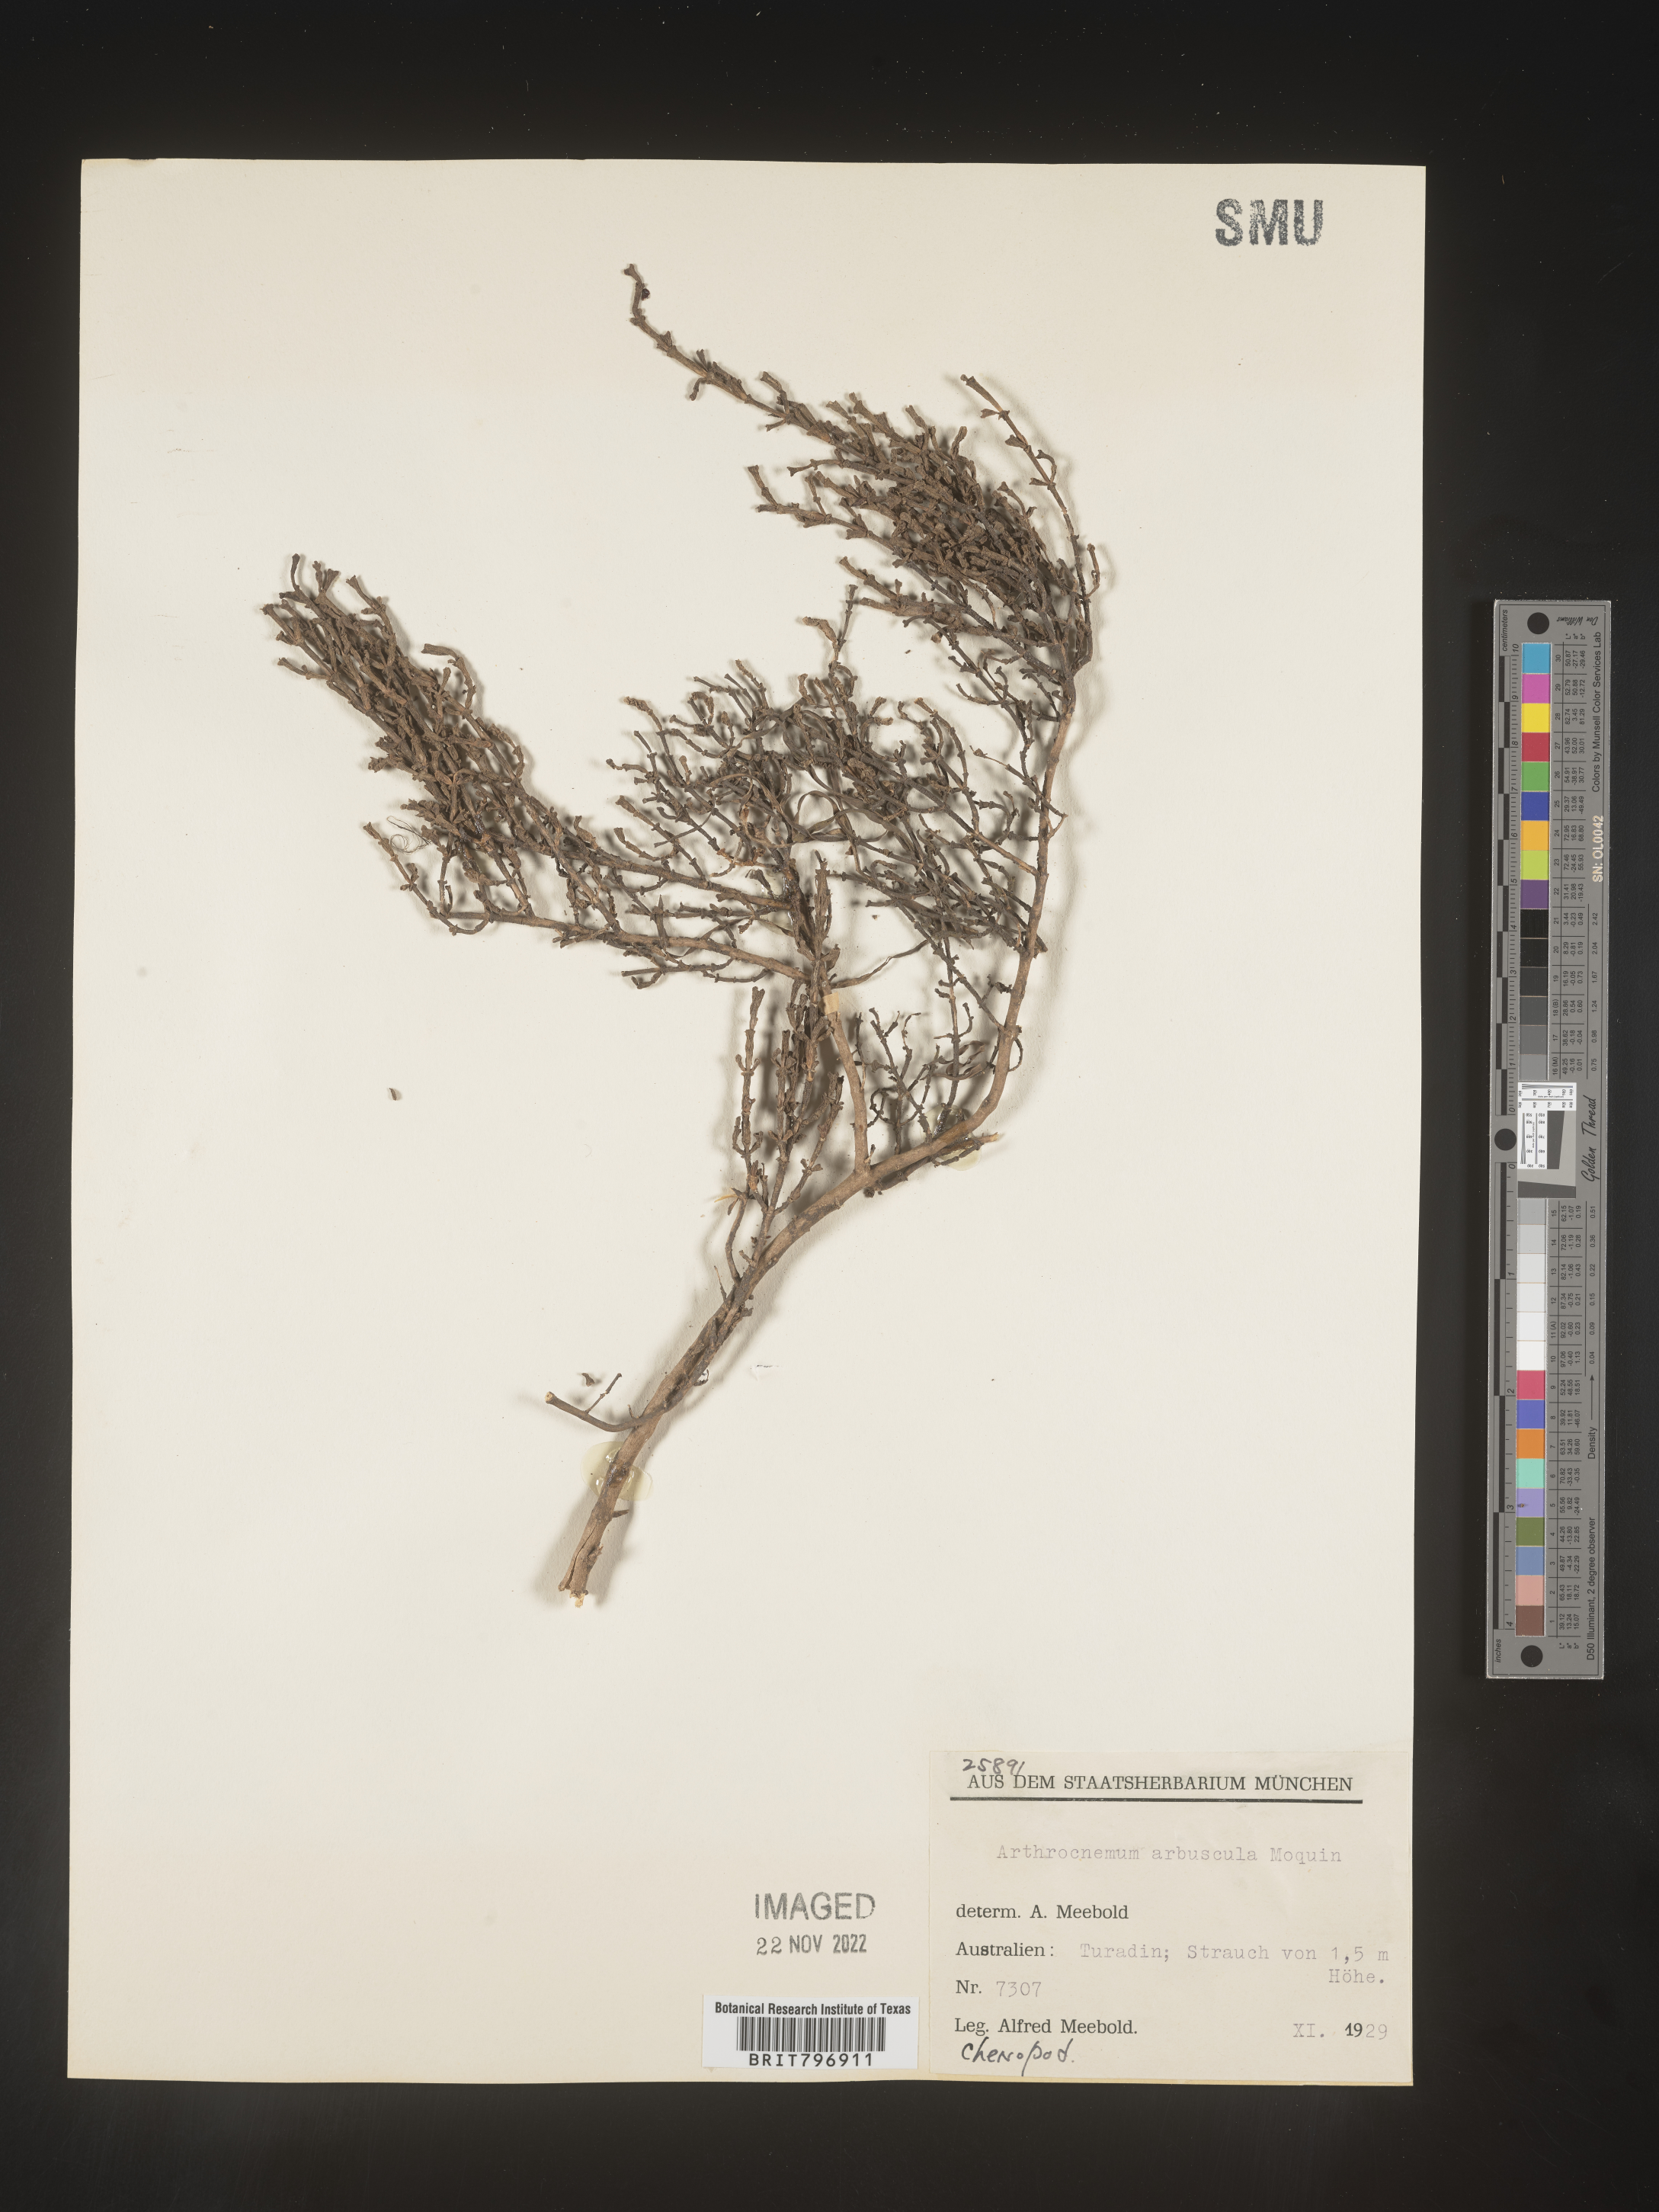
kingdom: Plantae
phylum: Tracheophyta
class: Magnoliopsida
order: Caryophyllales
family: Amaranthaceae
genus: Salicornia
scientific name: Salicornia
